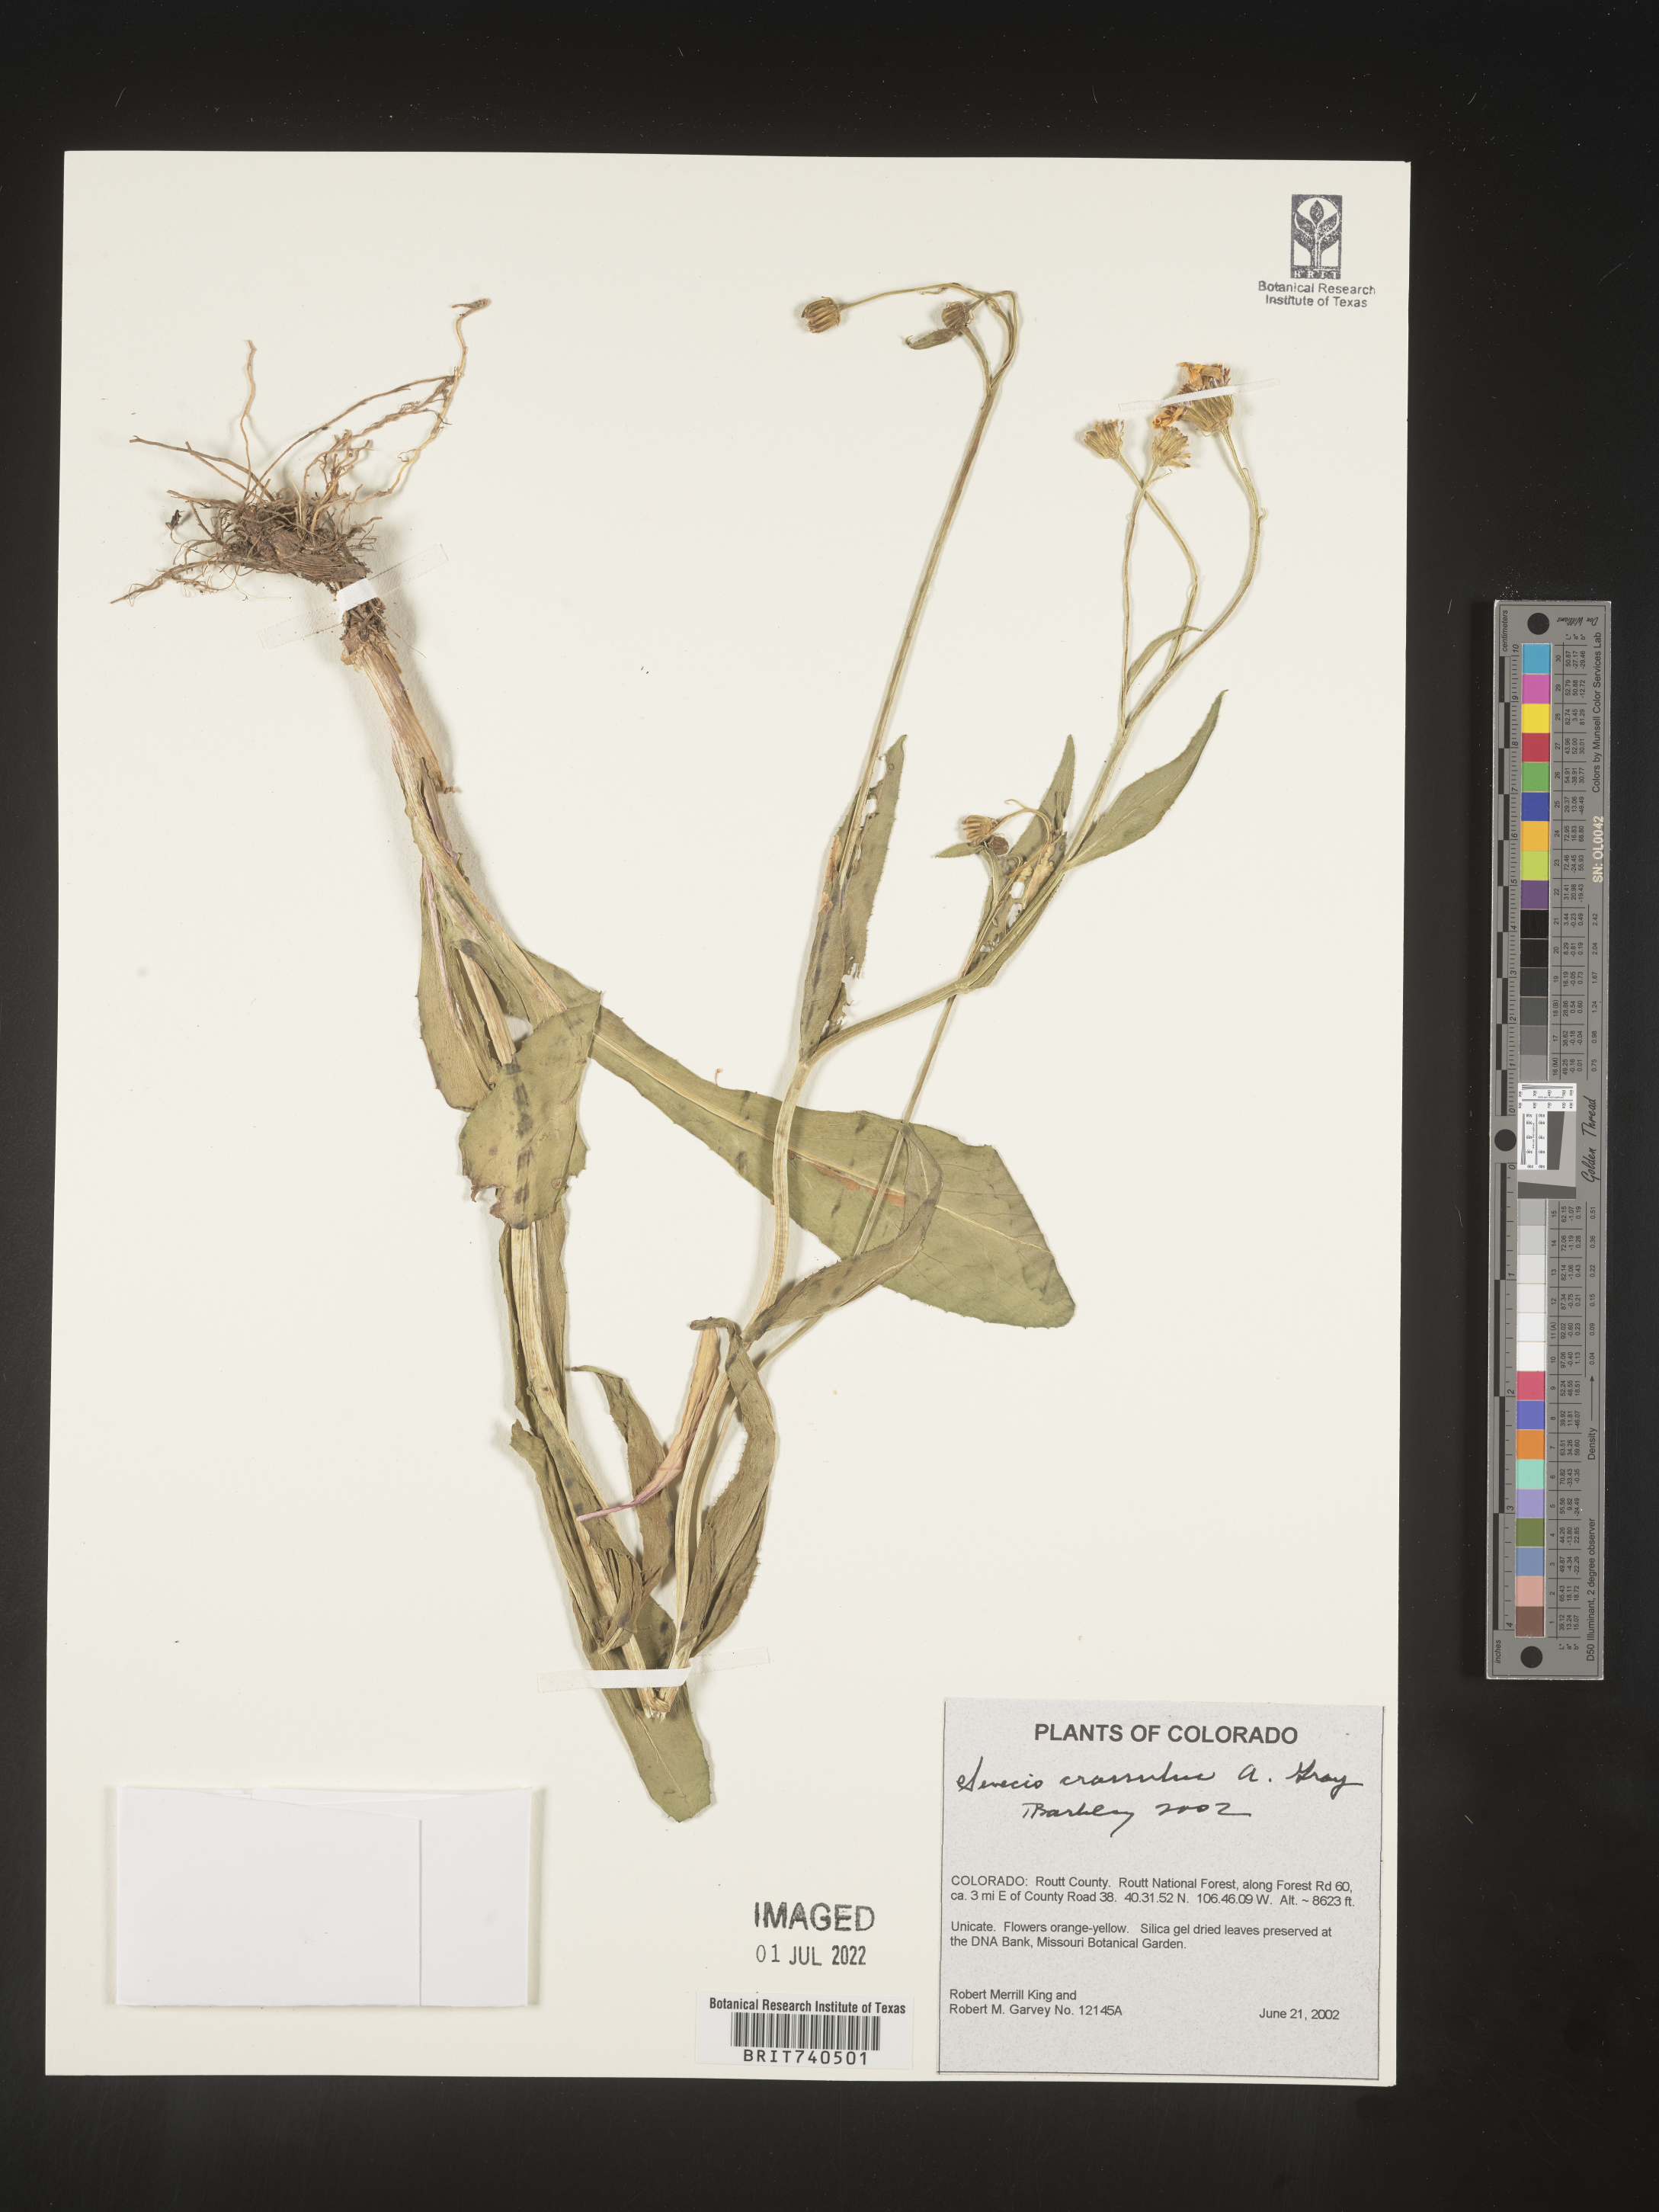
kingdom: Plantae
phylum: Tracheophyta
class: Magnoliopsida
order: Asterales
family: Asteraceae
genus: Senecio
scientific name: Senecio crassulus
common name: Mountain-meadow butterweed
